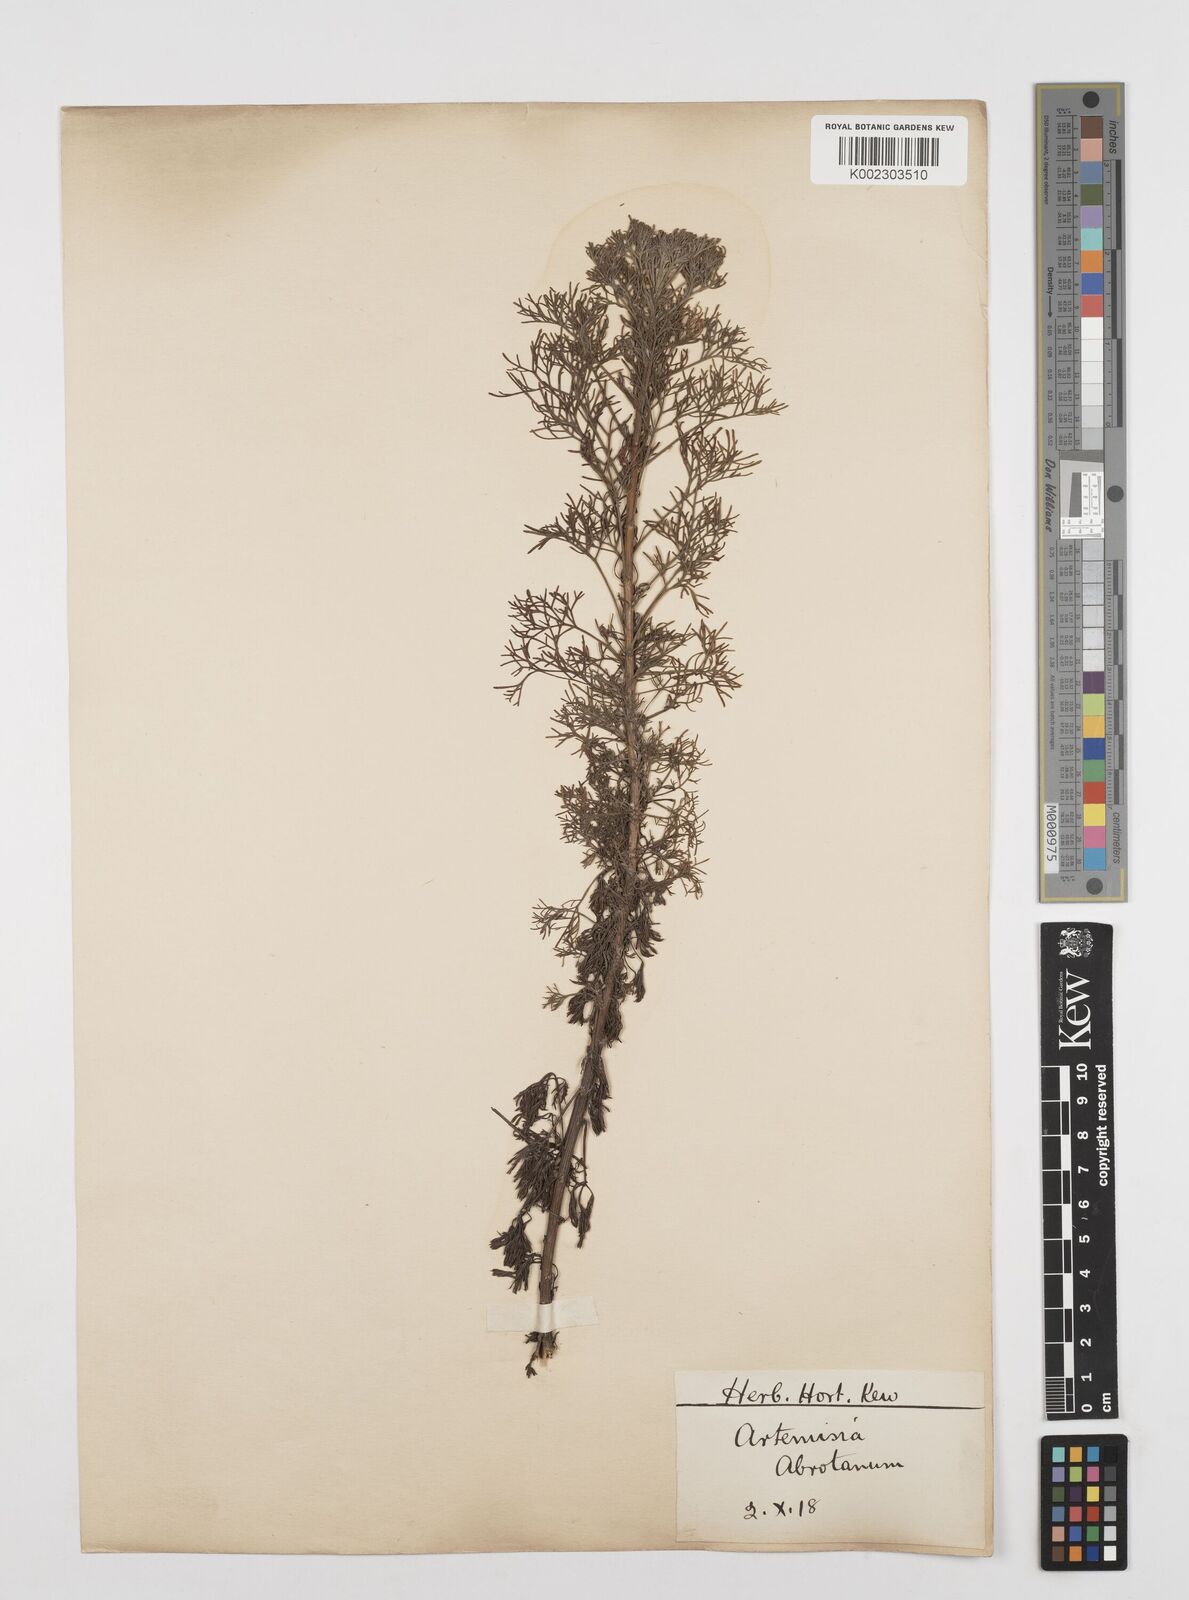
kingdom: Plantae
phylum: Tracheophyta
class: Magnoliopsida
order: Asterales
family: Asteraceae
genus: Artemisia
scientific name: Artemisia abrotanum
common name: Southernwood
